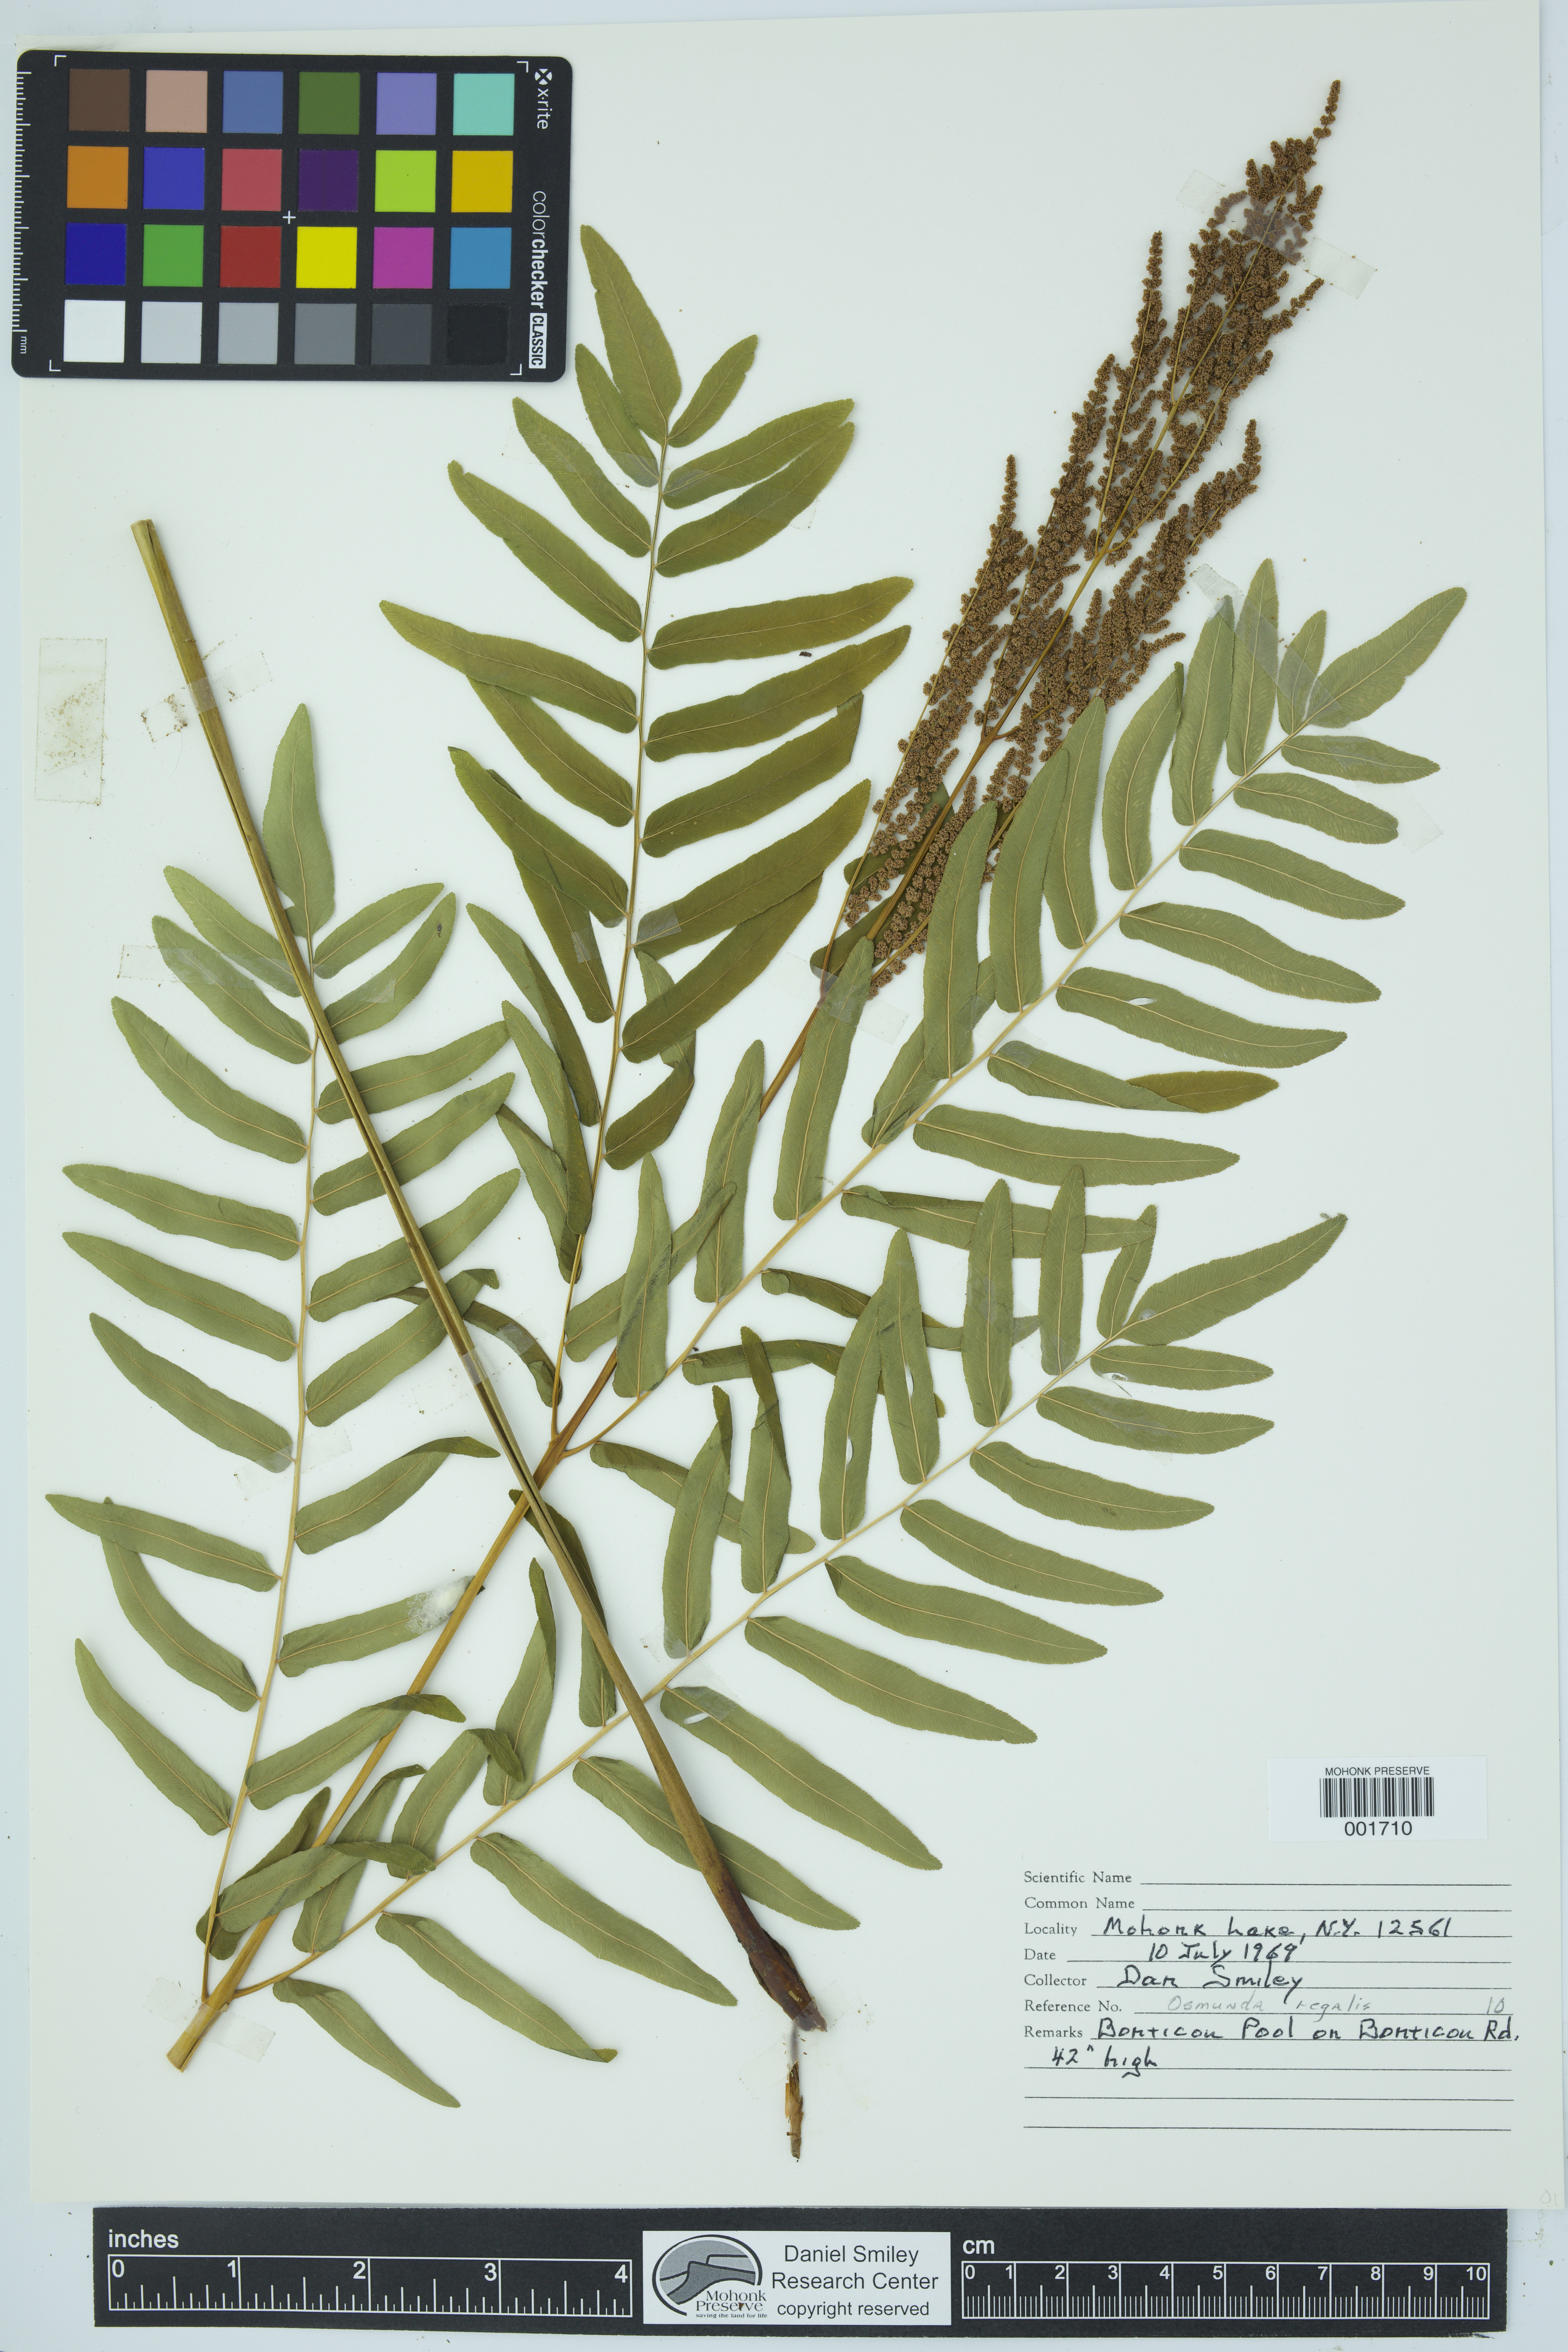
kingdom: Plantae
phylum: Tracheophyta
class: Polypodiopsida
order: Osmundales
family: Osmundaceae
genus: Osmunda
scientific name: Osmunda regalis
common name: Royal fern
